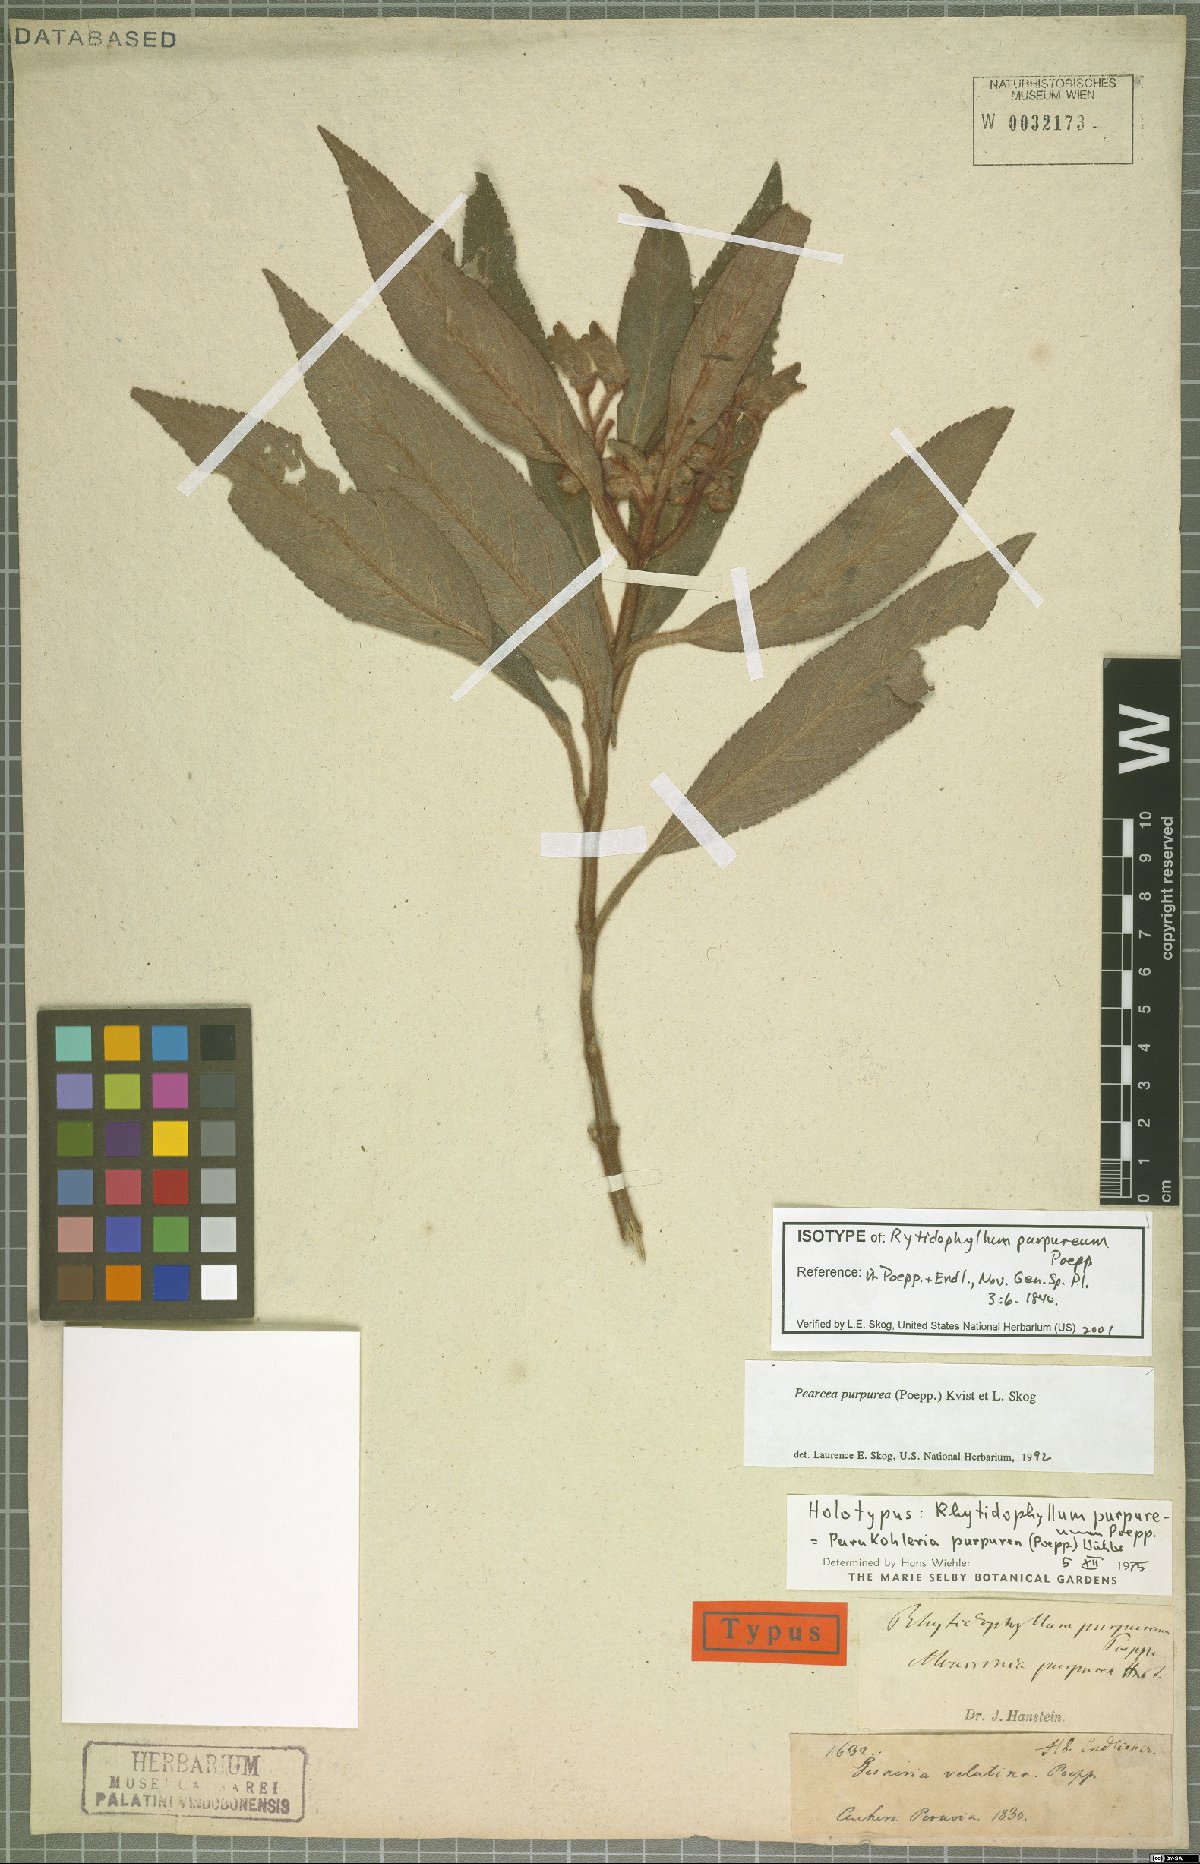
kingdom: Plantae
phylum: Tracheophyta
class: Magnoliopsida
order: Lamiales
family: Gesneriaceae
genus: Pearcea
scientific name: Pearcea purpurea
